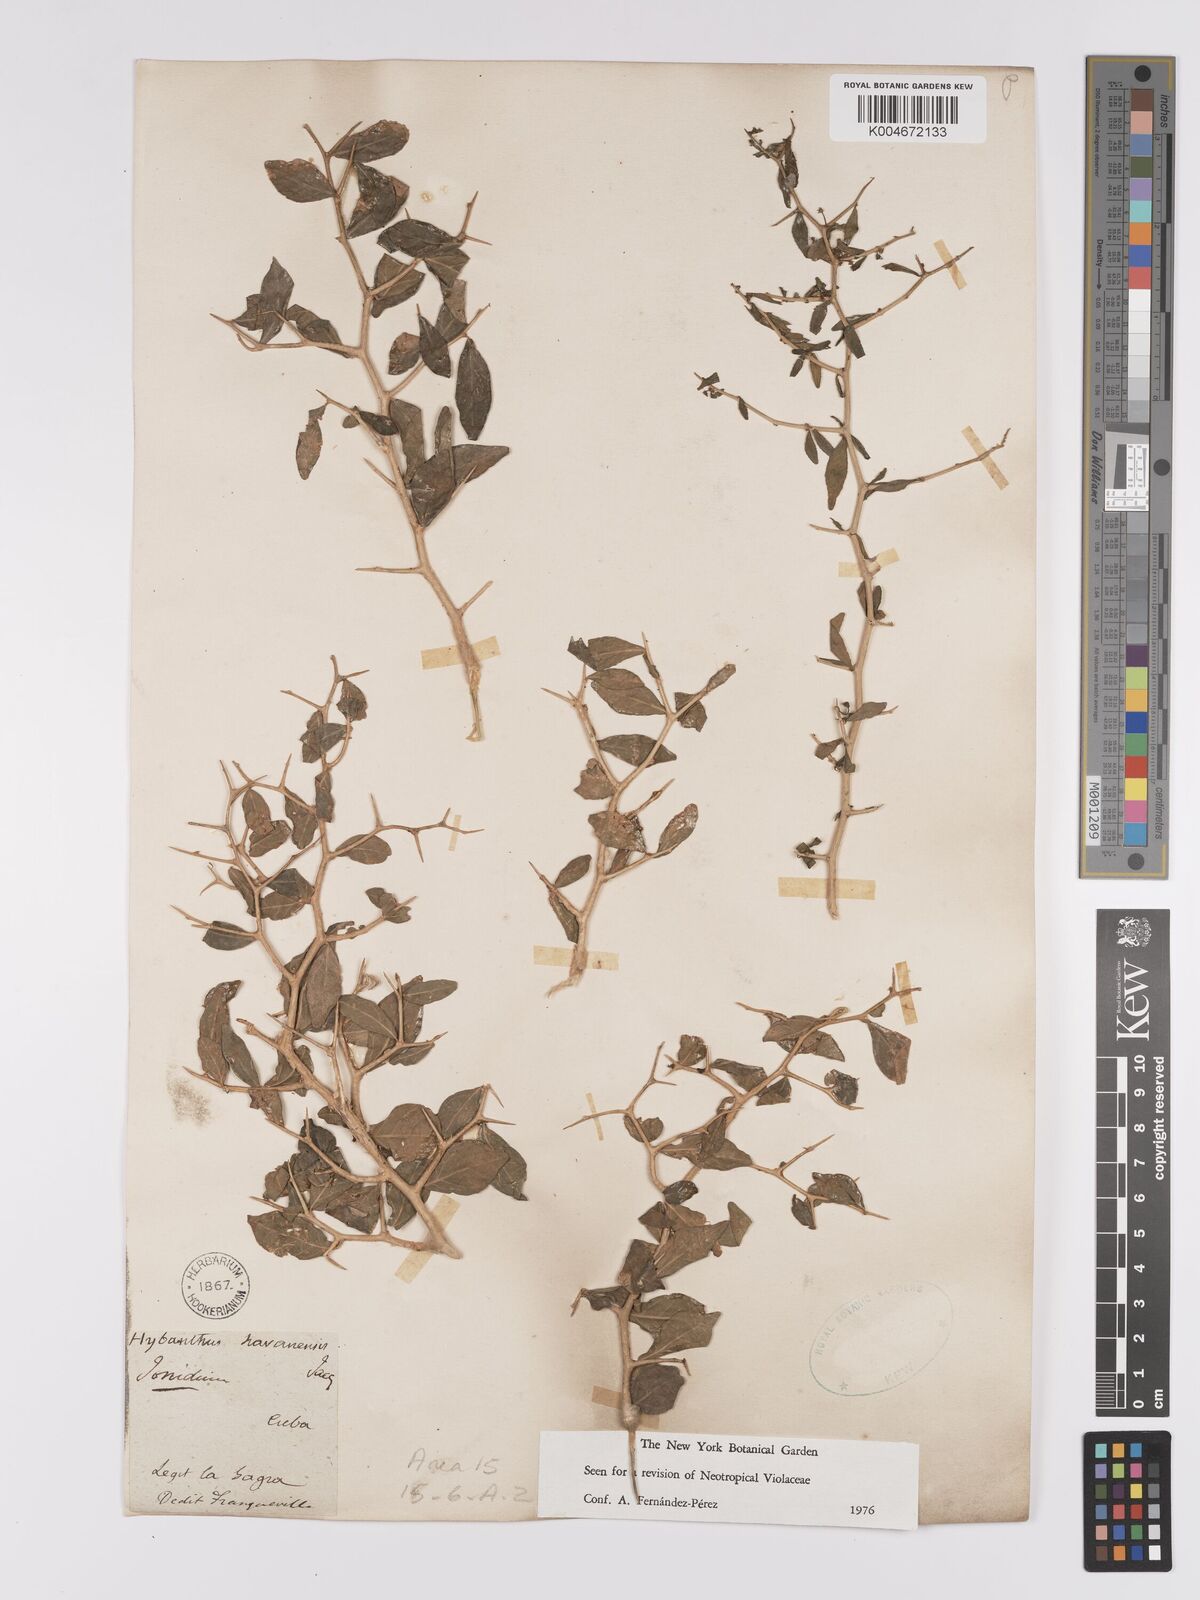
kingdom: Plantae
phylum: Tracheophyta
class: Magnoliopsida
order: Malpighiales
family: Violaceae
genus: Hybanthus
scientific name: Hybanthus havanensis
